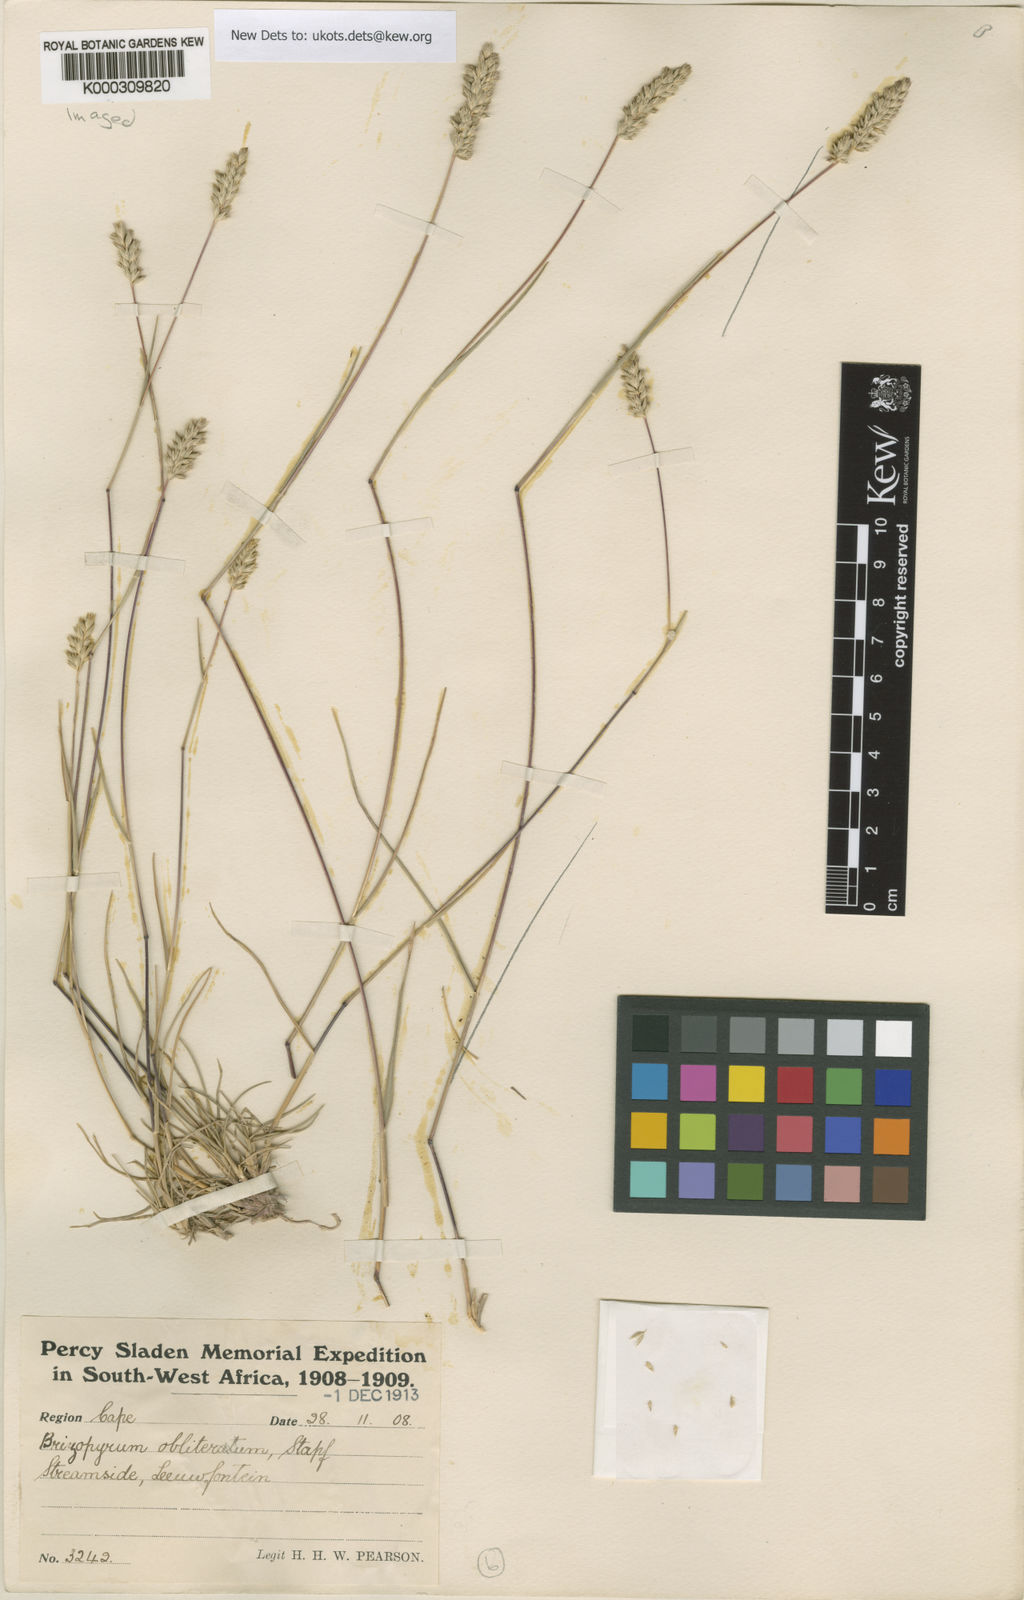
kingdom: Plantae
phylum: Tracheophyta
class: Liliopsida
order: Poales
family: Poaceae
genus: Tribolium
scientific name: Tribolium obliterum
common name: Capetown grass
